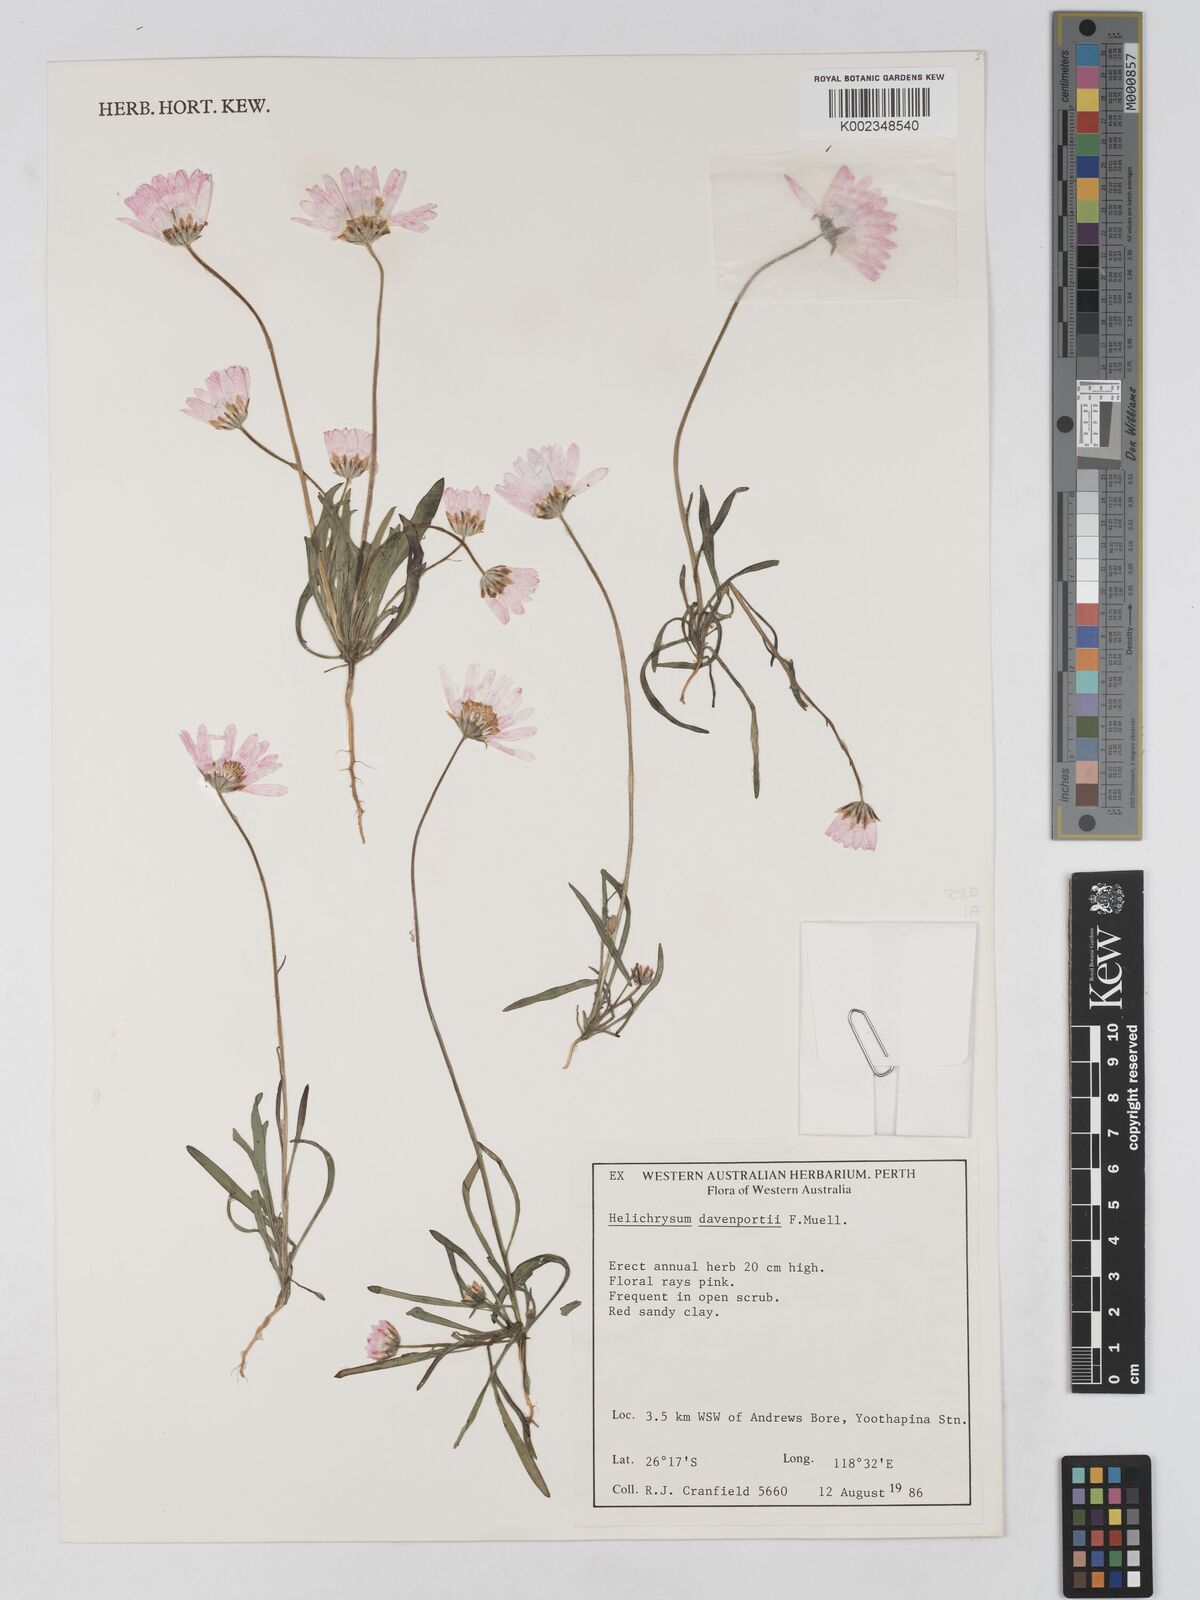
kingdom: Plantae
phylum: Tracheophyta
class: Magnoliopsida
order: Asterales
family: Asteraceae
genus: Lawrencella
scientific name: Lawrencella davenportii
